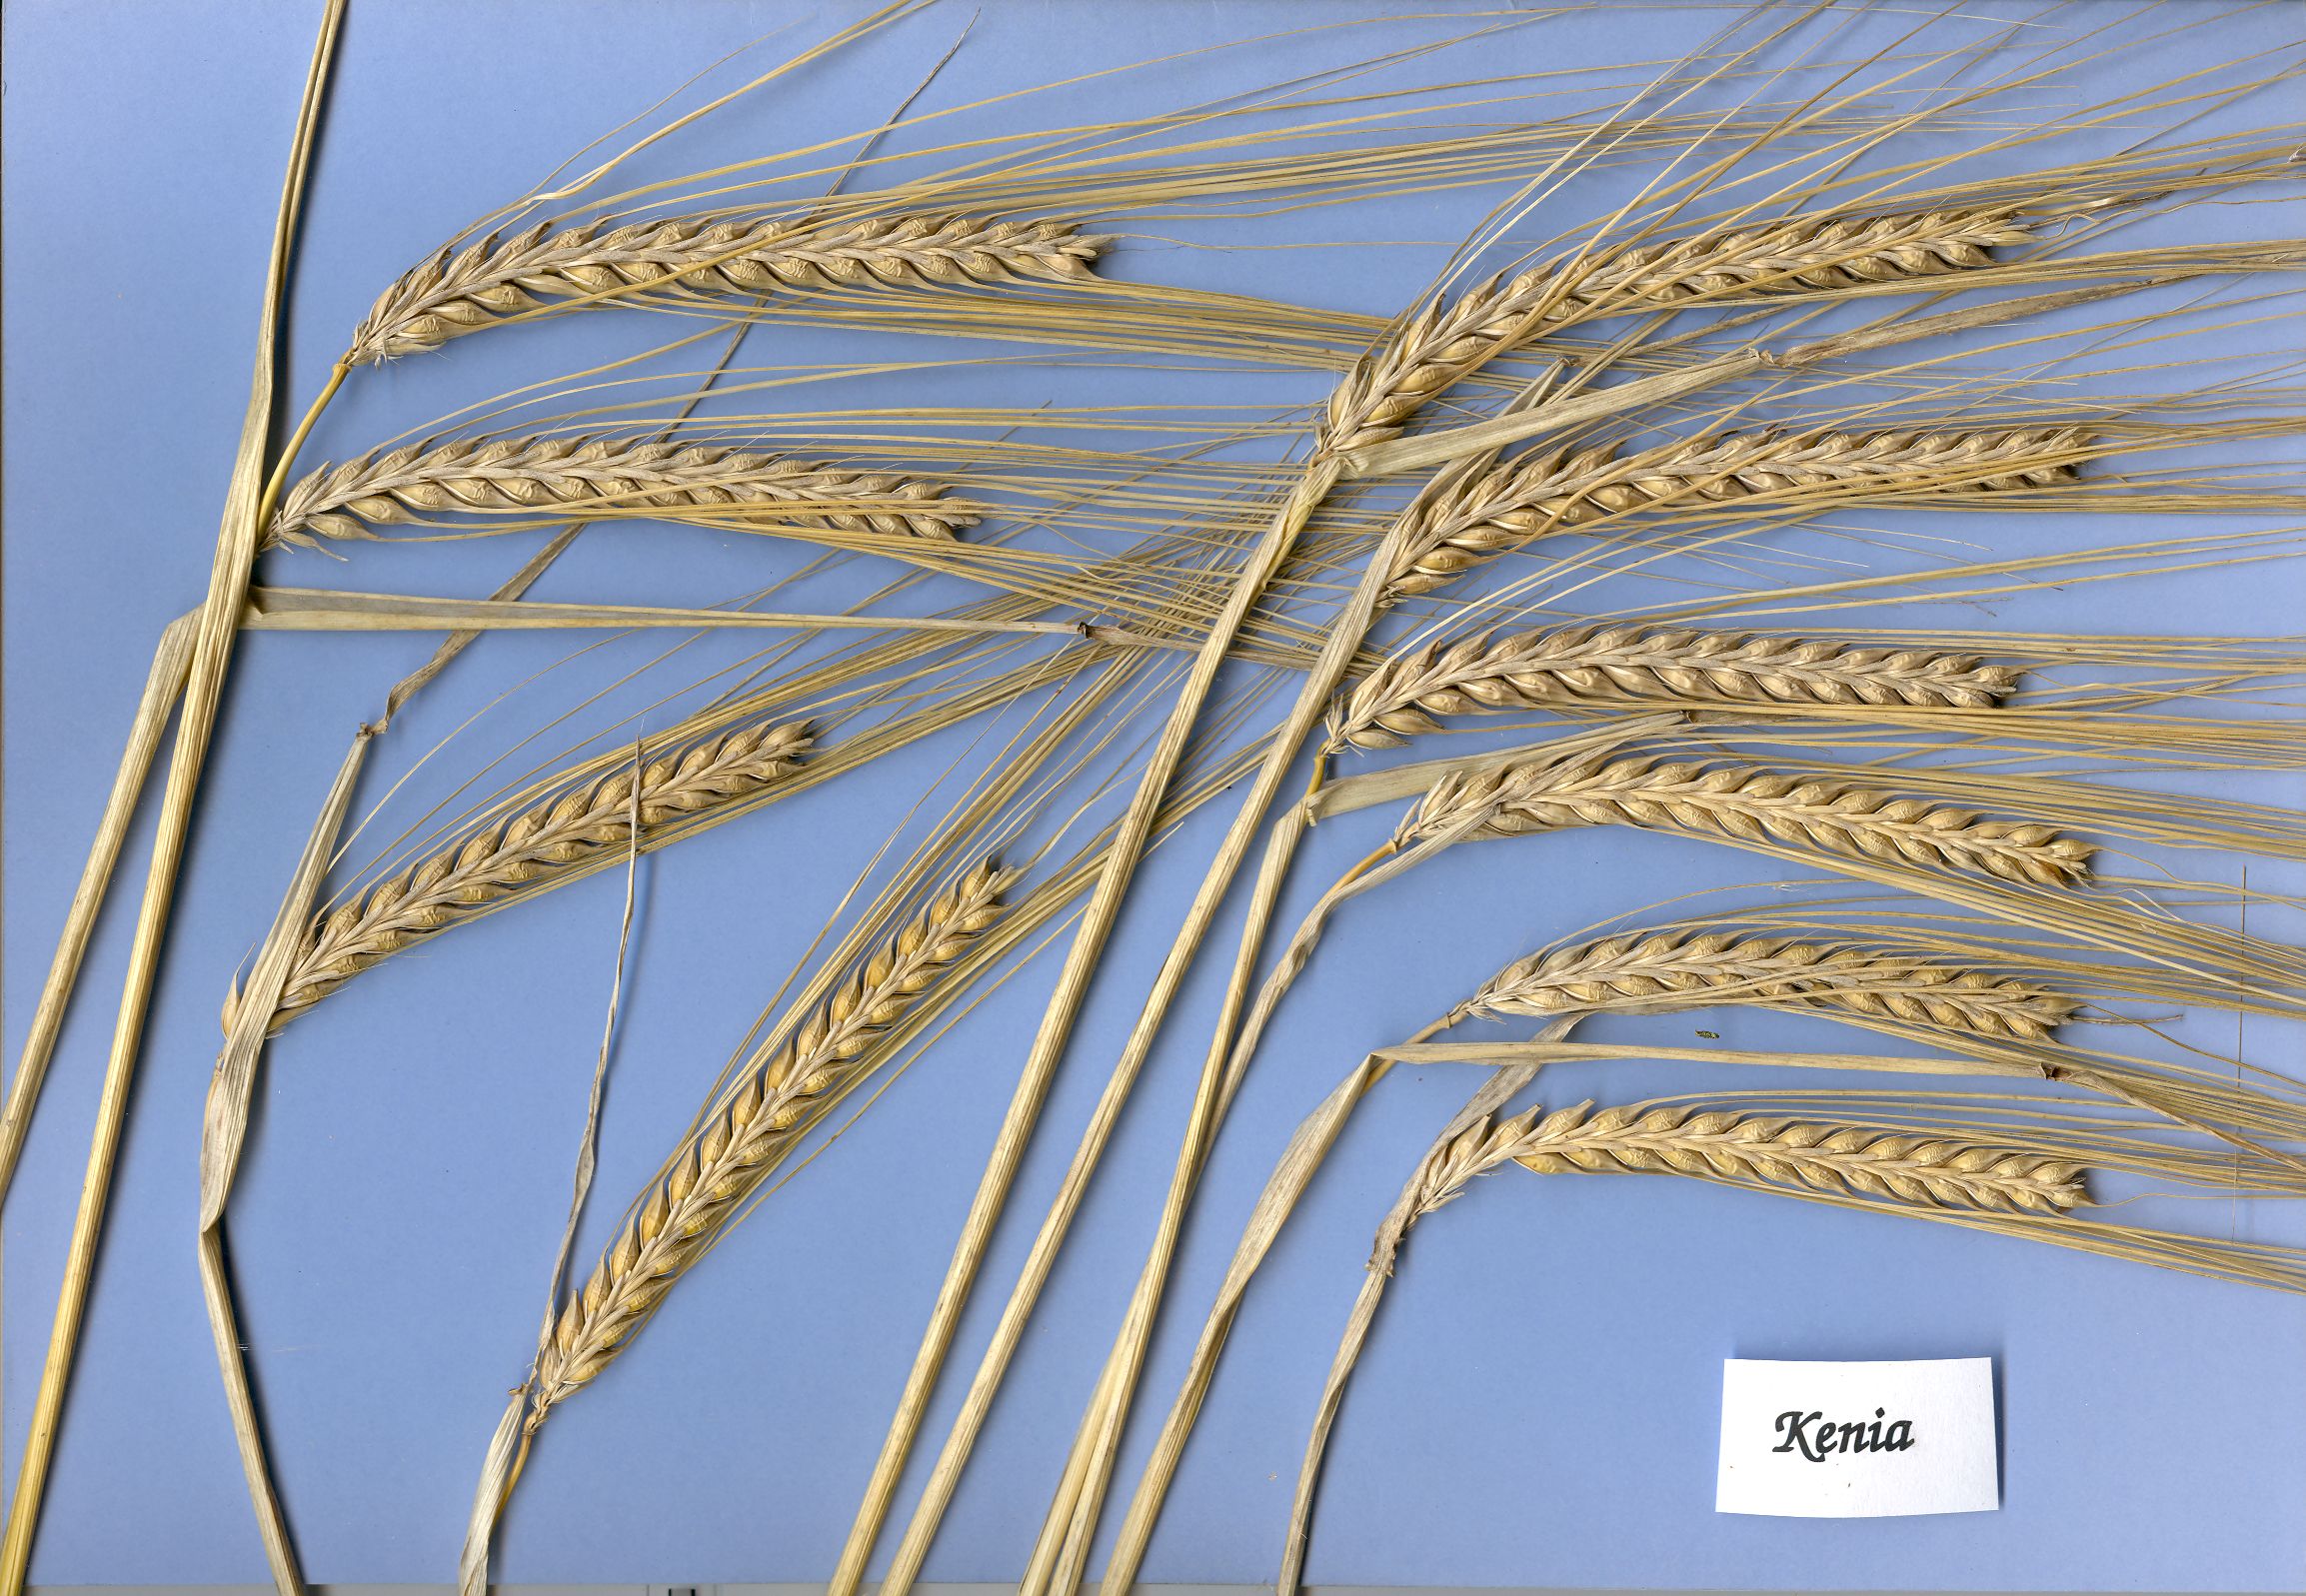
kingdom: Plantae
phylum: Tracheophyta
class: Liliopsida
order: Poales
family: Poaceae
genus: Hordeum
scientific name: Hordeum vulgare
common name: Common barley
